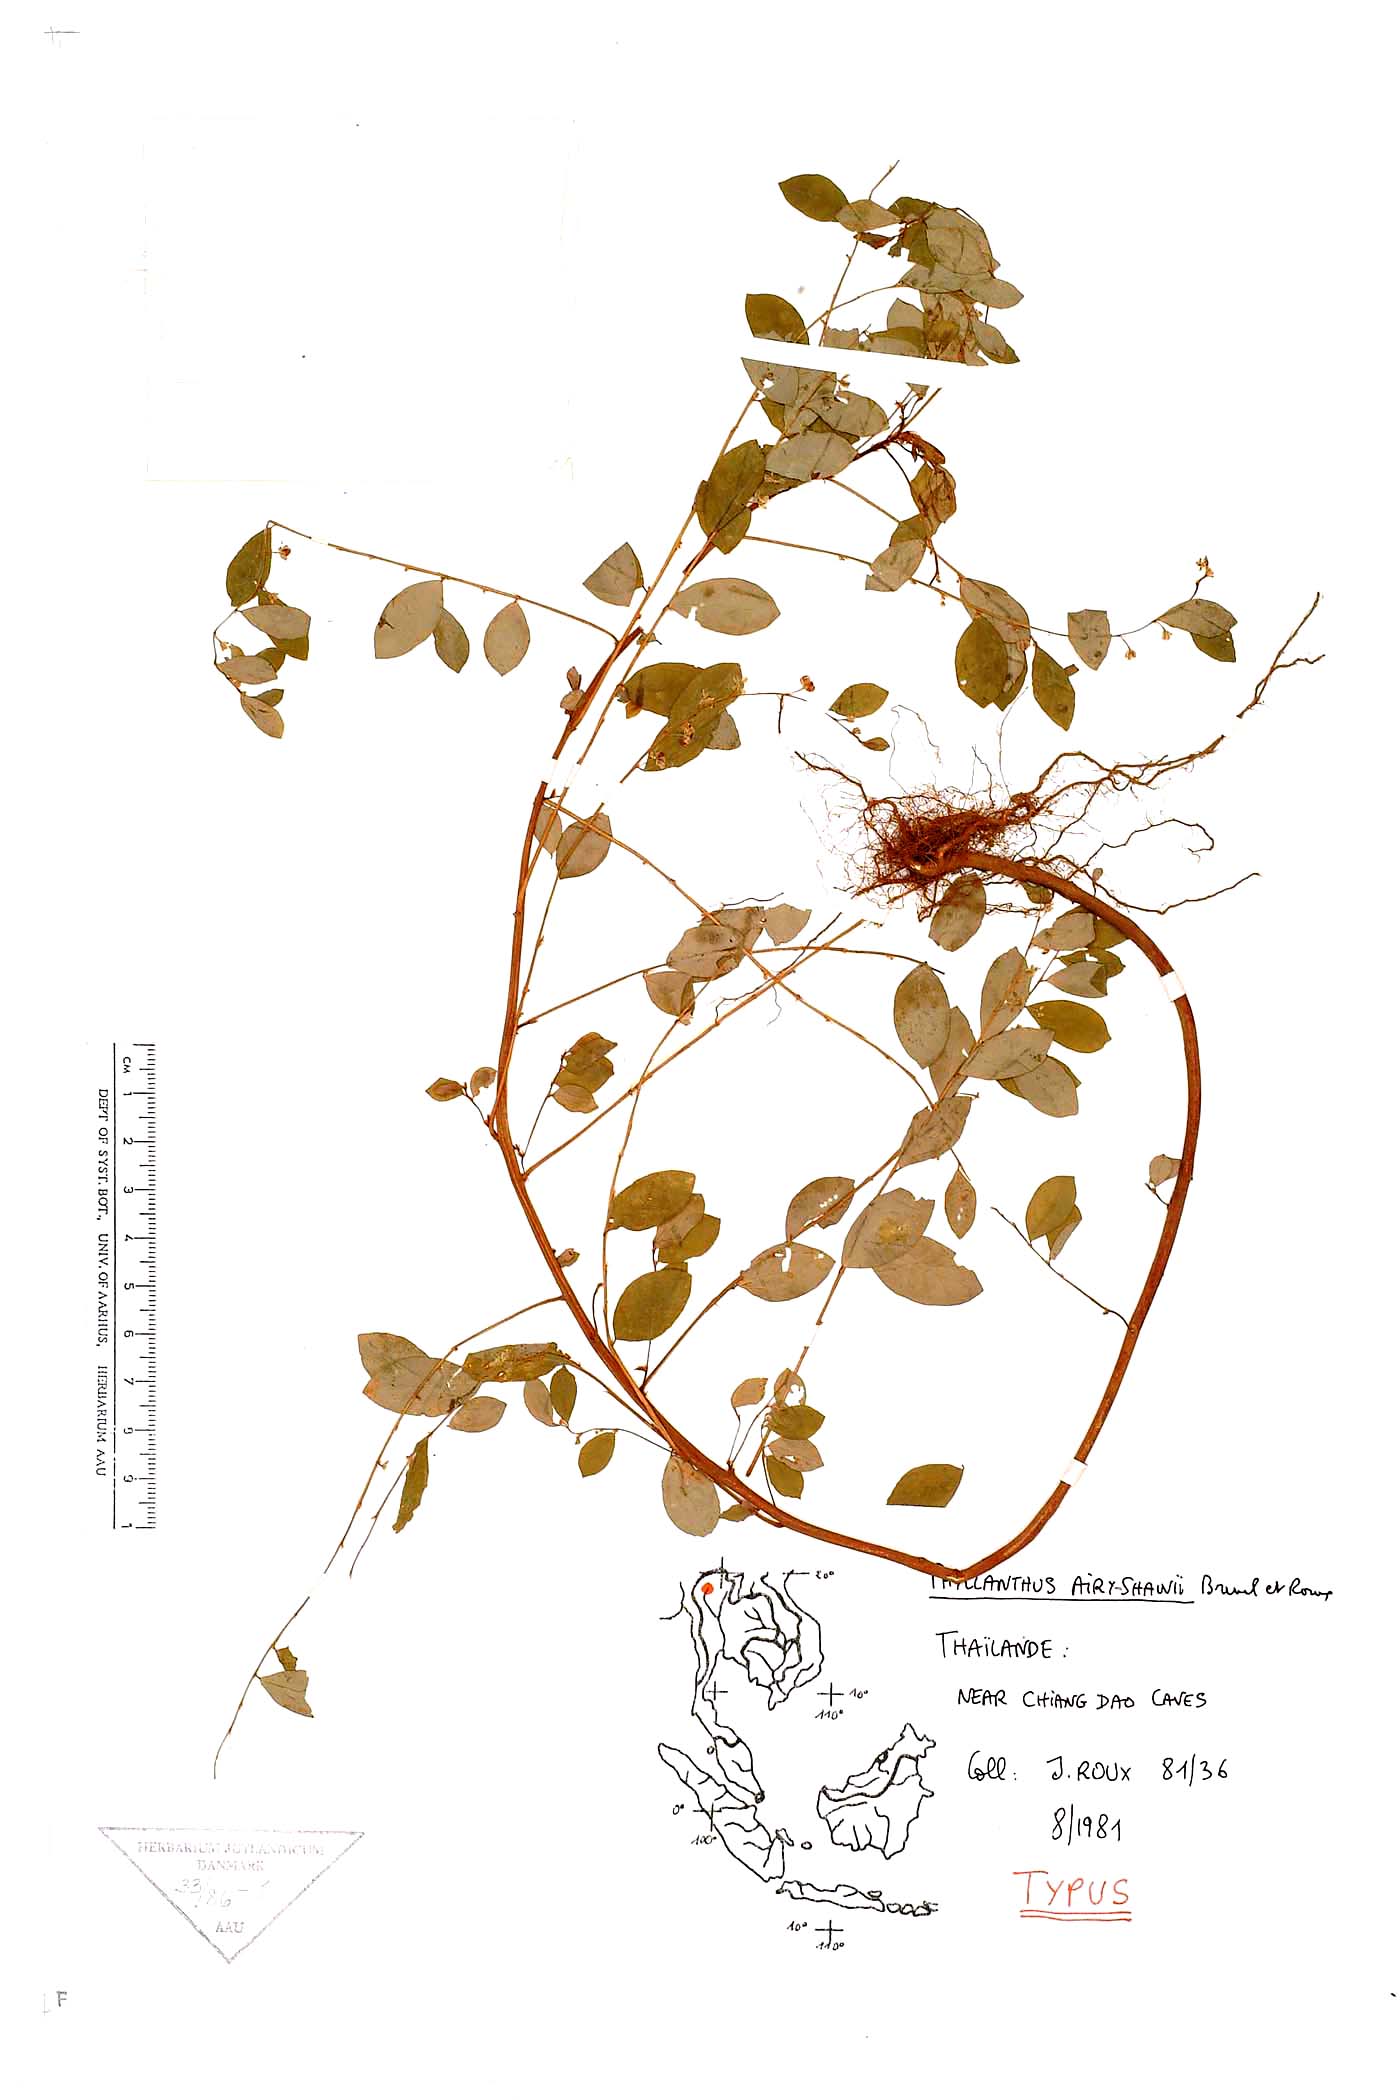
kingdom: Plantae
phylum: Tracheophyta
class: Magnoliopsida
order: Malpighiales
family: Phyllanthaceae
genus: Phyllanthus
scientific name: Phyllanthus airy-shawii
